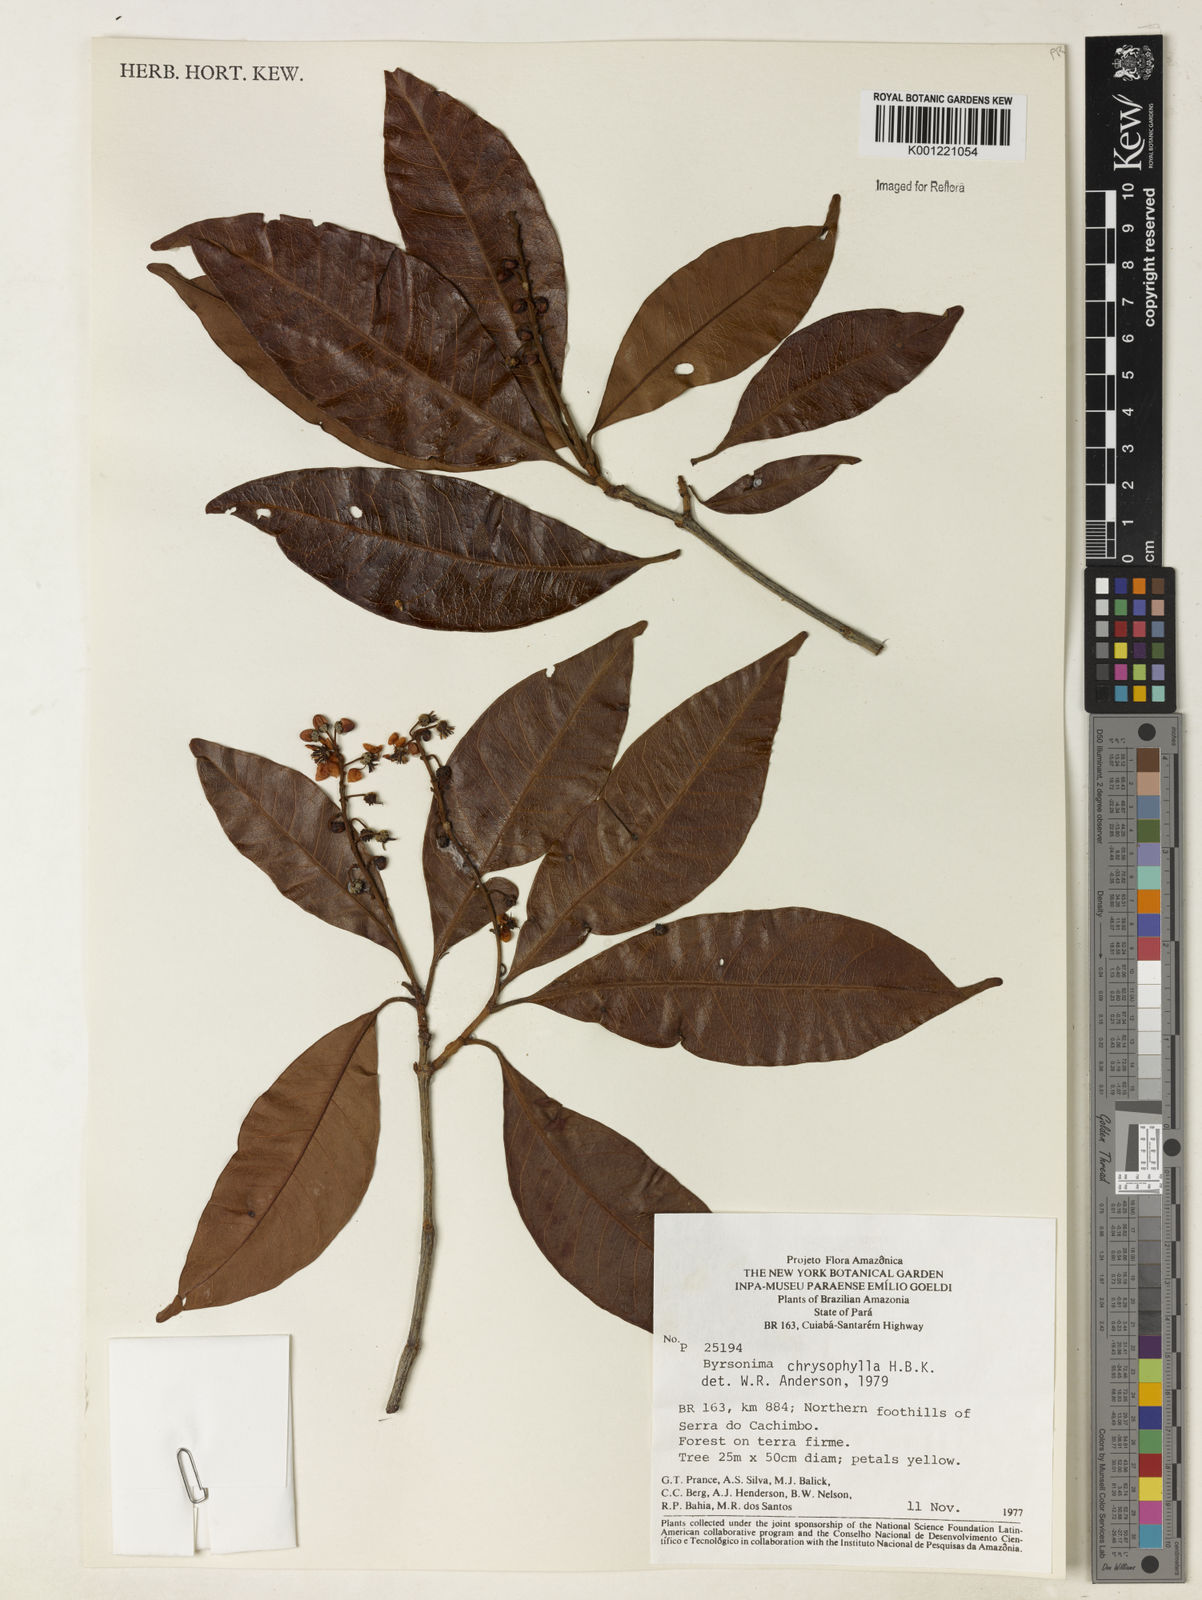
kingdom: Plantae
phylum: Tracheophyta
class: Magnoliopsida
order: Malpighiales
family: Malpighiaceae
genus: Byrsonima
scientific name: Byrsonima chrysophylla
